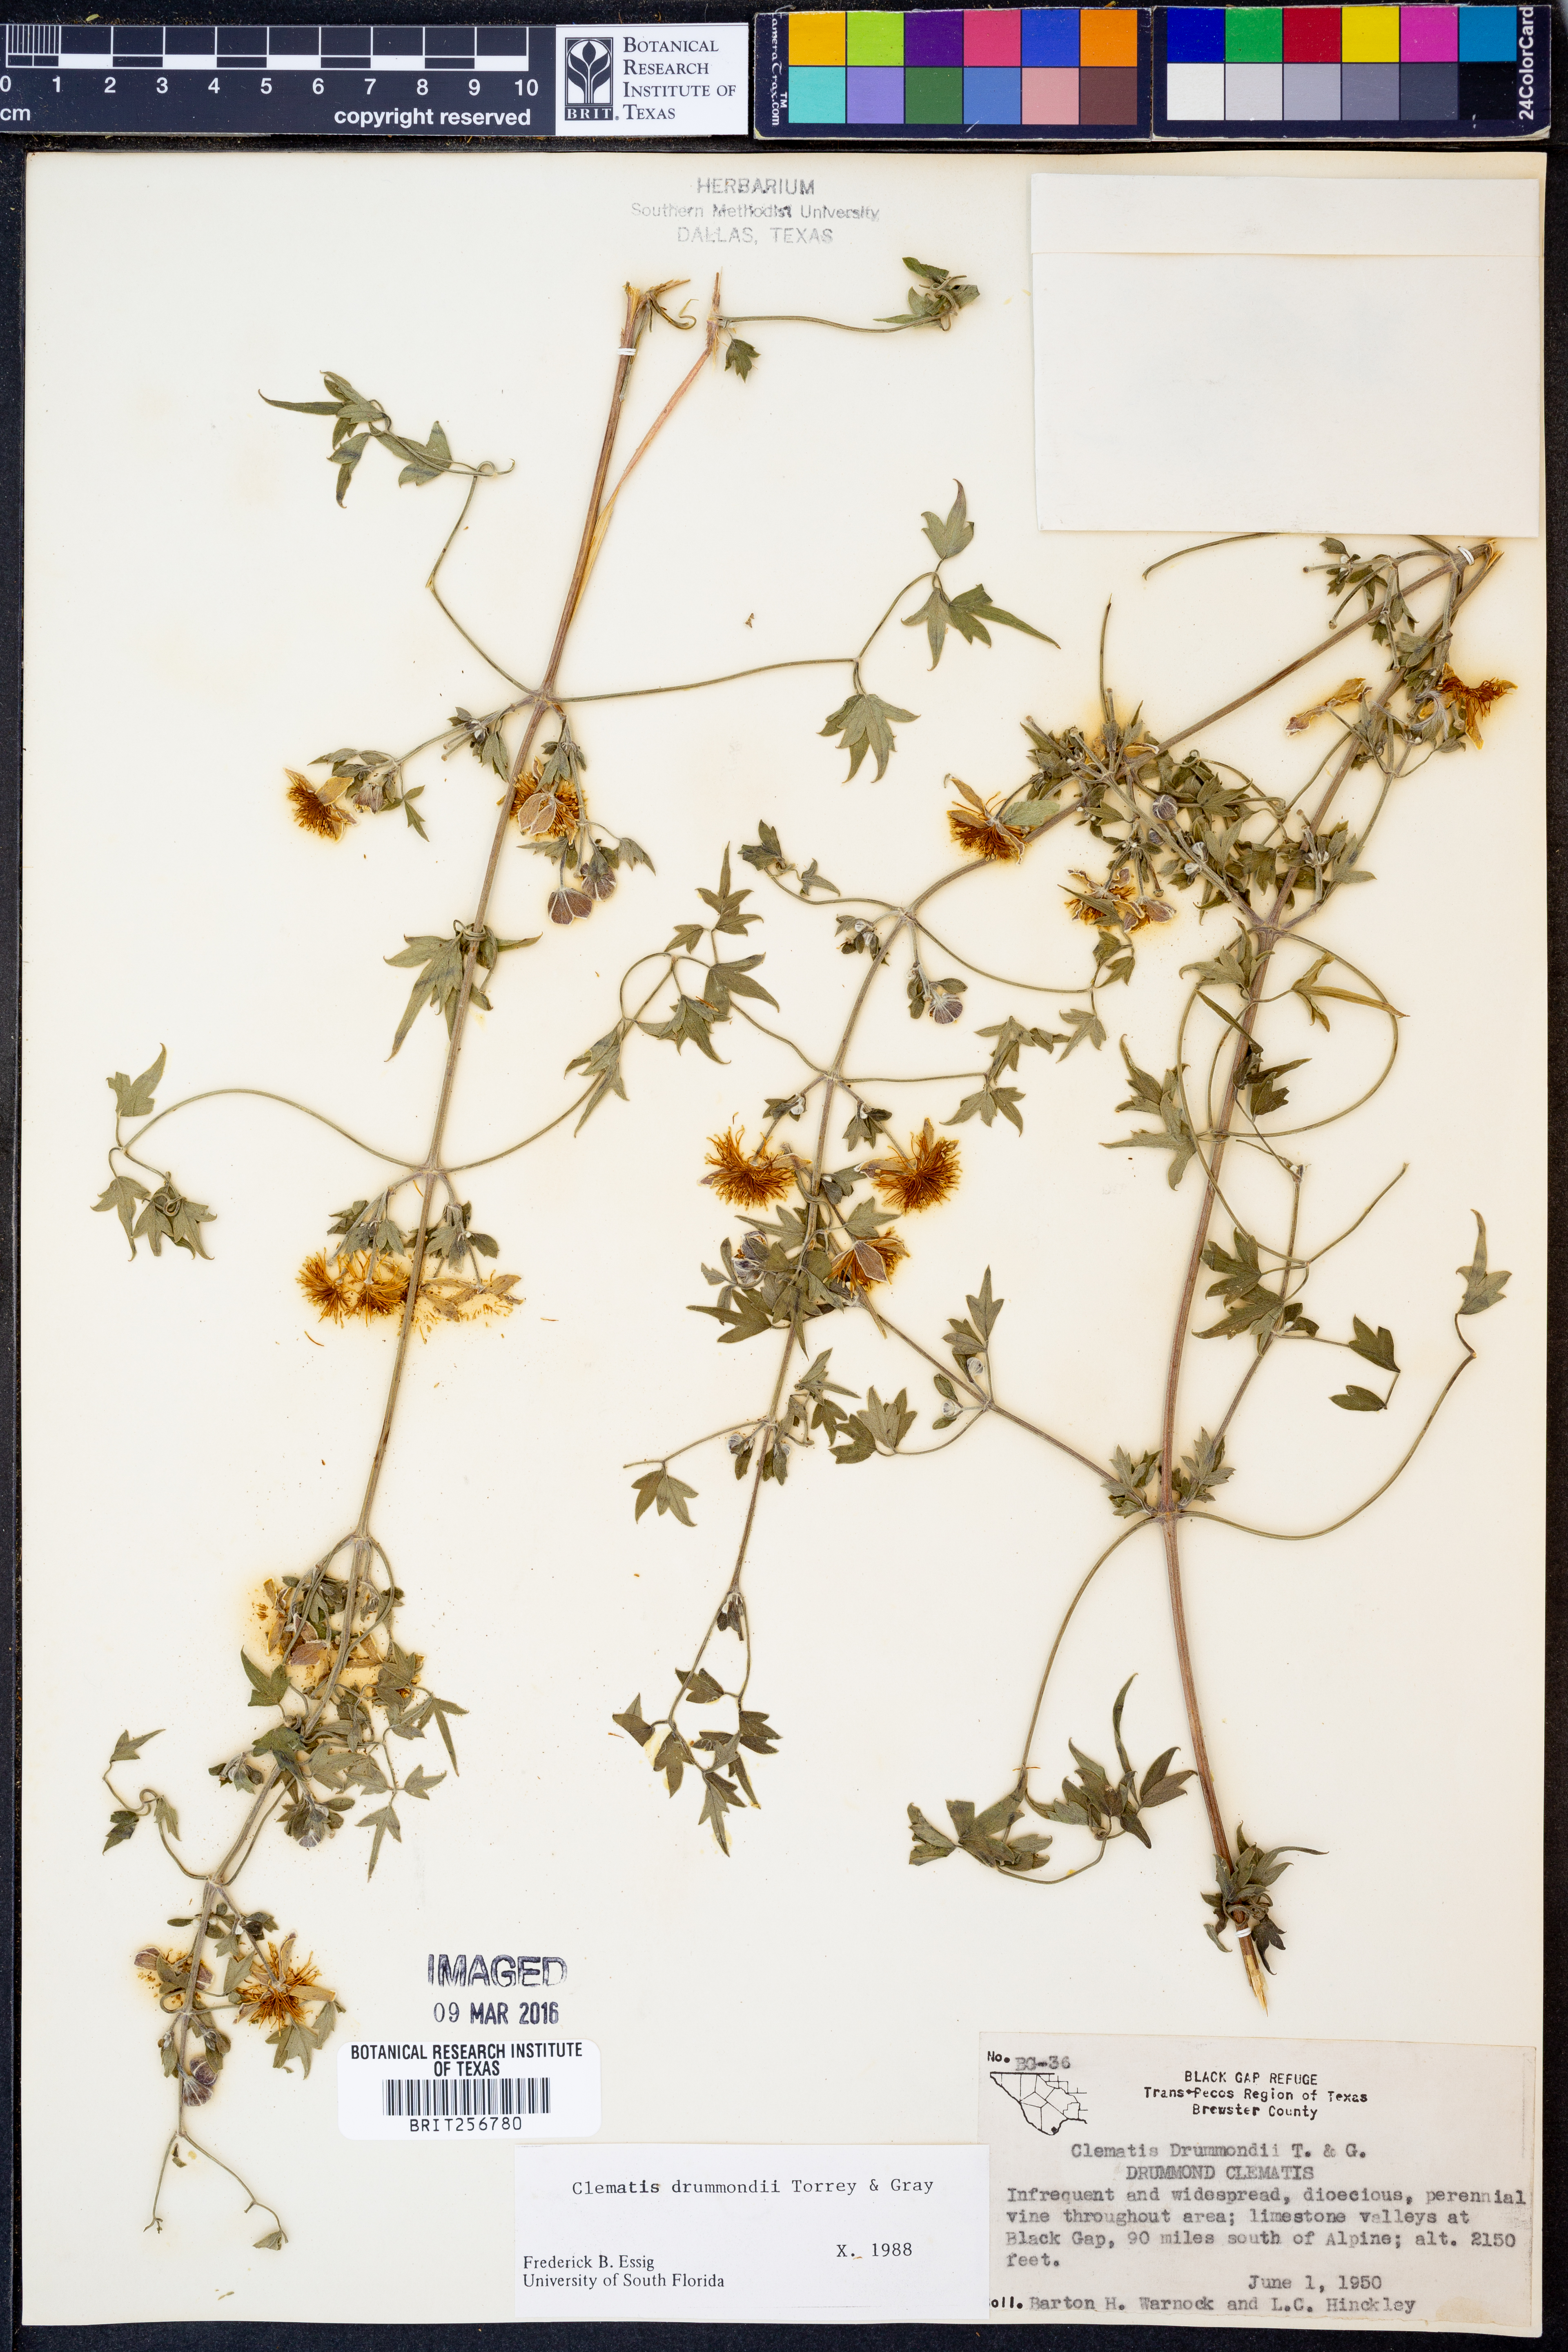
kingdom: Plantae
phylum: Tracheophyta
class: Magnoliopsida
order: Ranunculales
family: Ranunculaceae
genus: Clematis
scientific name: Clematis drummondii
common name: Texas virgin's bower
